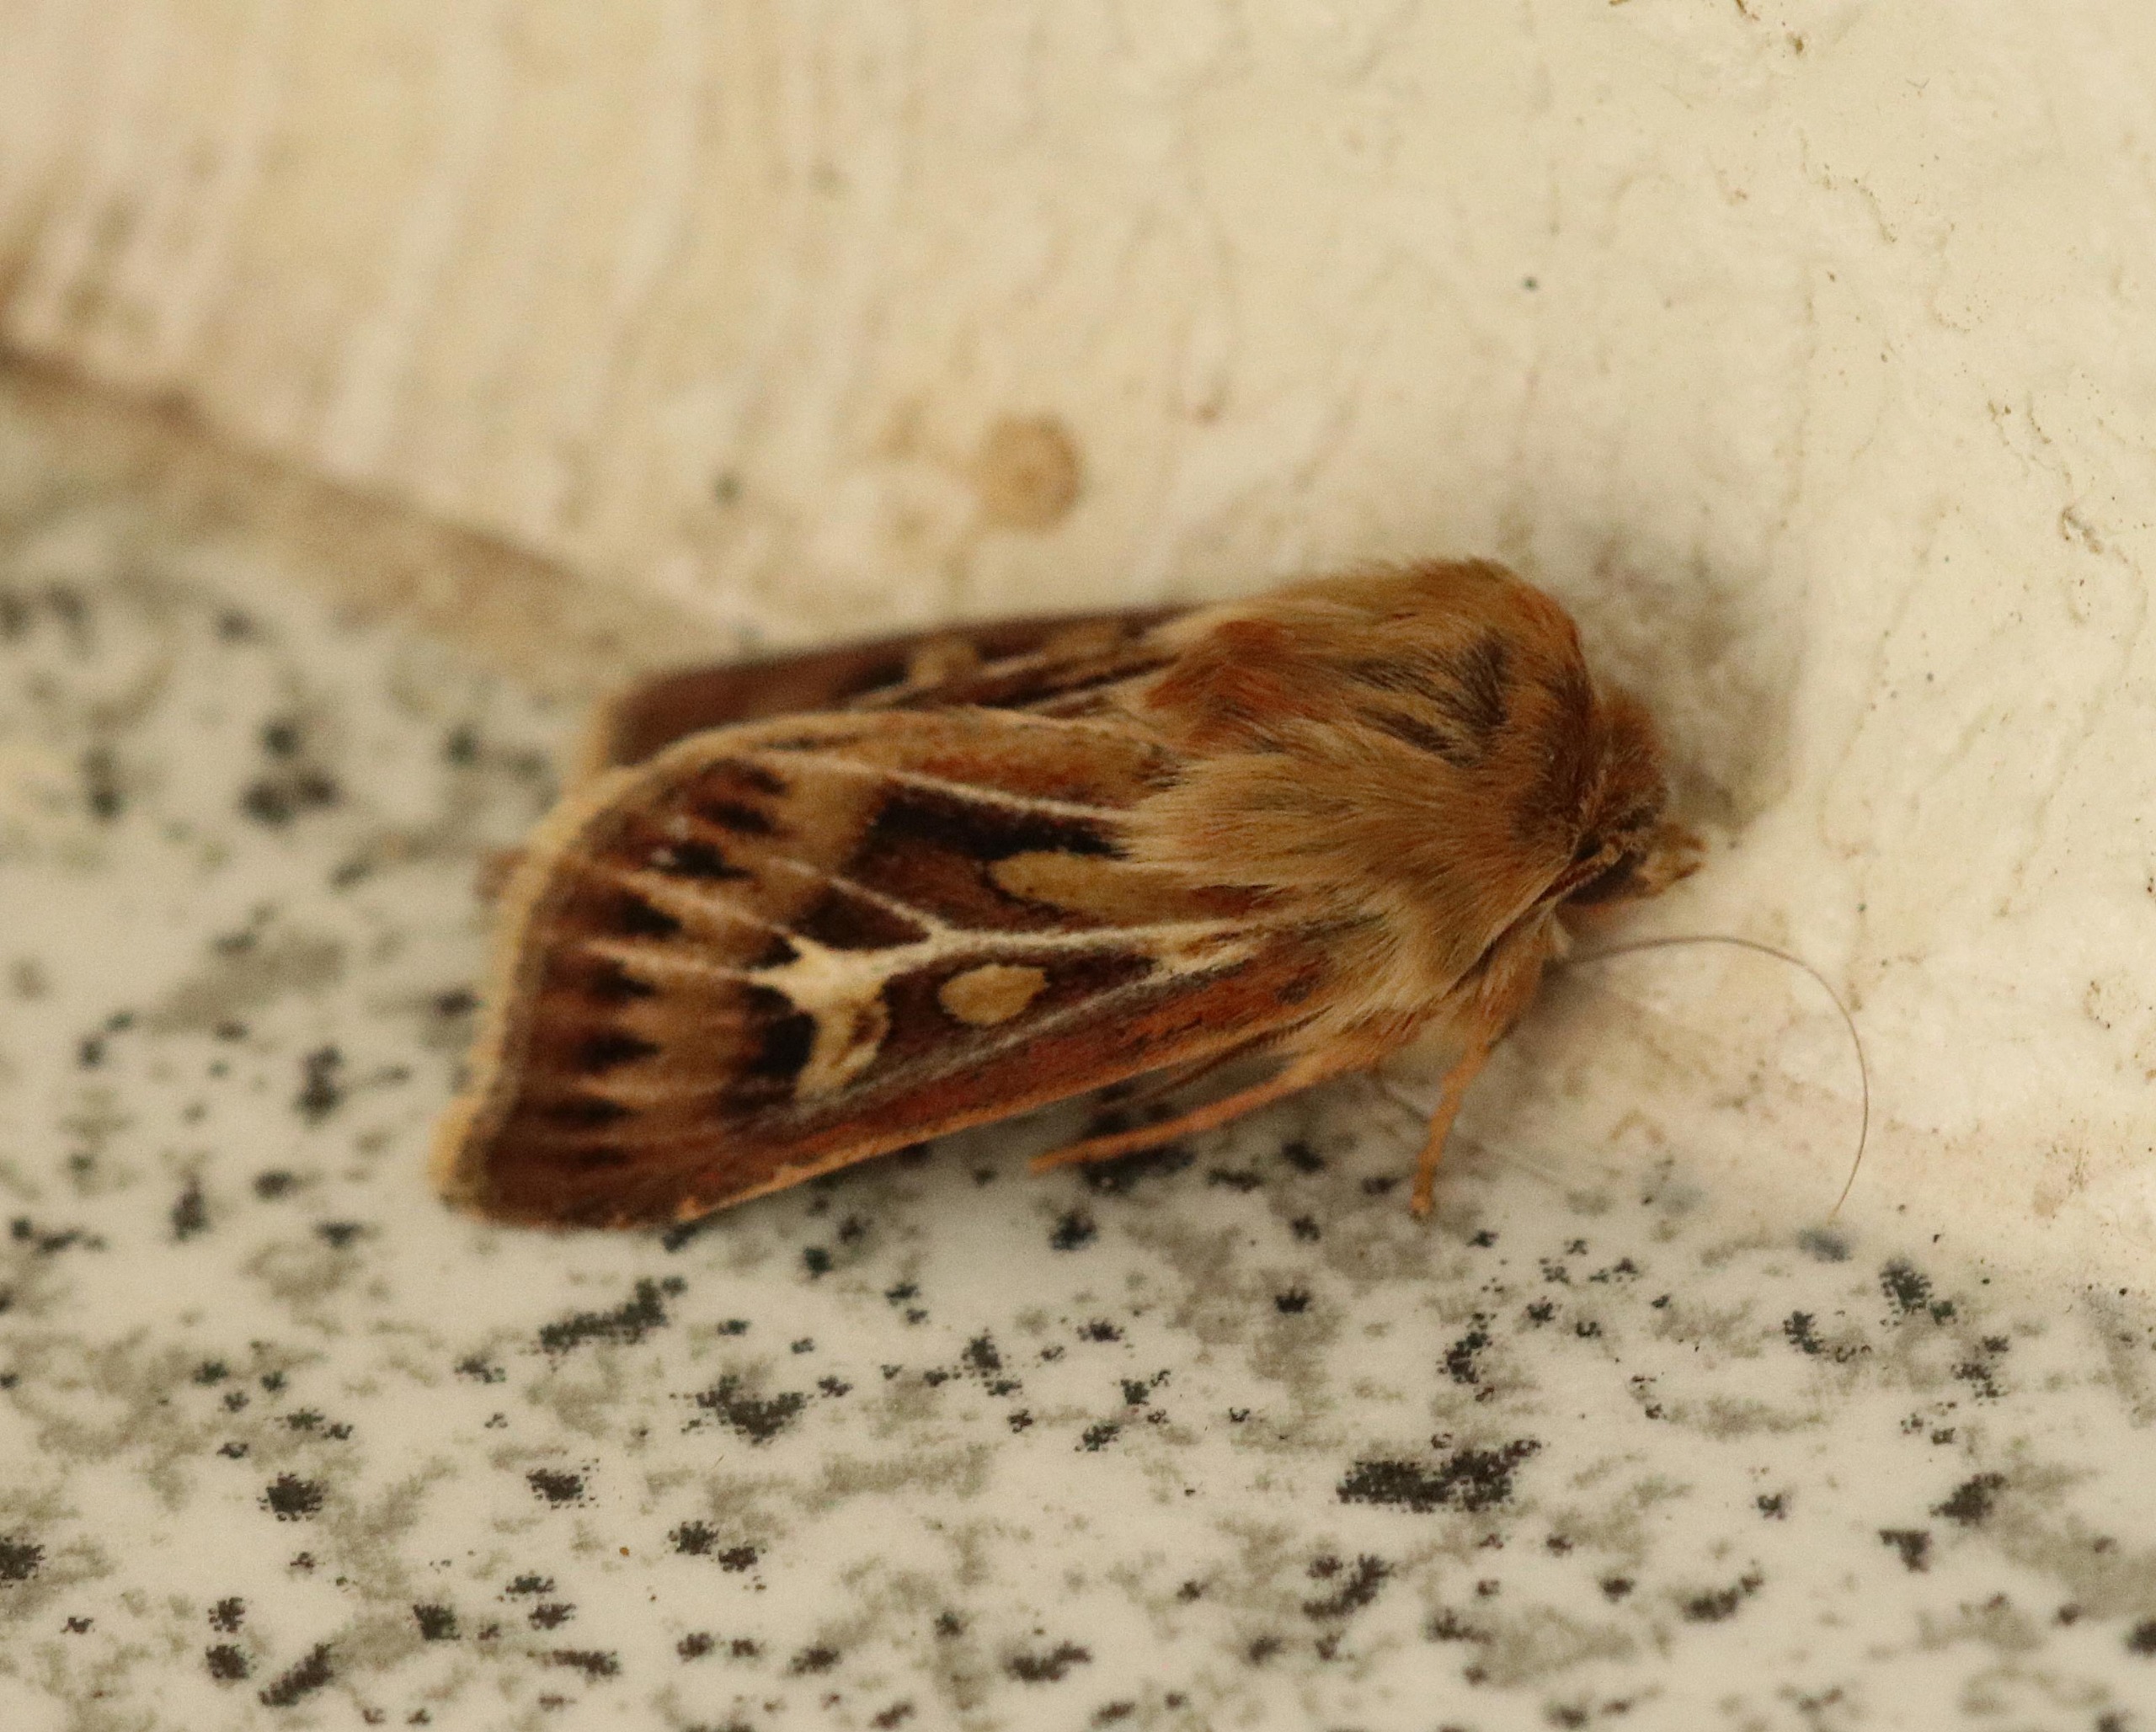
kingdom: Animalia
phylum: Arthropoda
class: Insecta
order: Lepidoptera
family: Noctuidae
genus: Cerapteryx
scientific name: Cerapteryx graminis
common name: Mosebunkeugle
